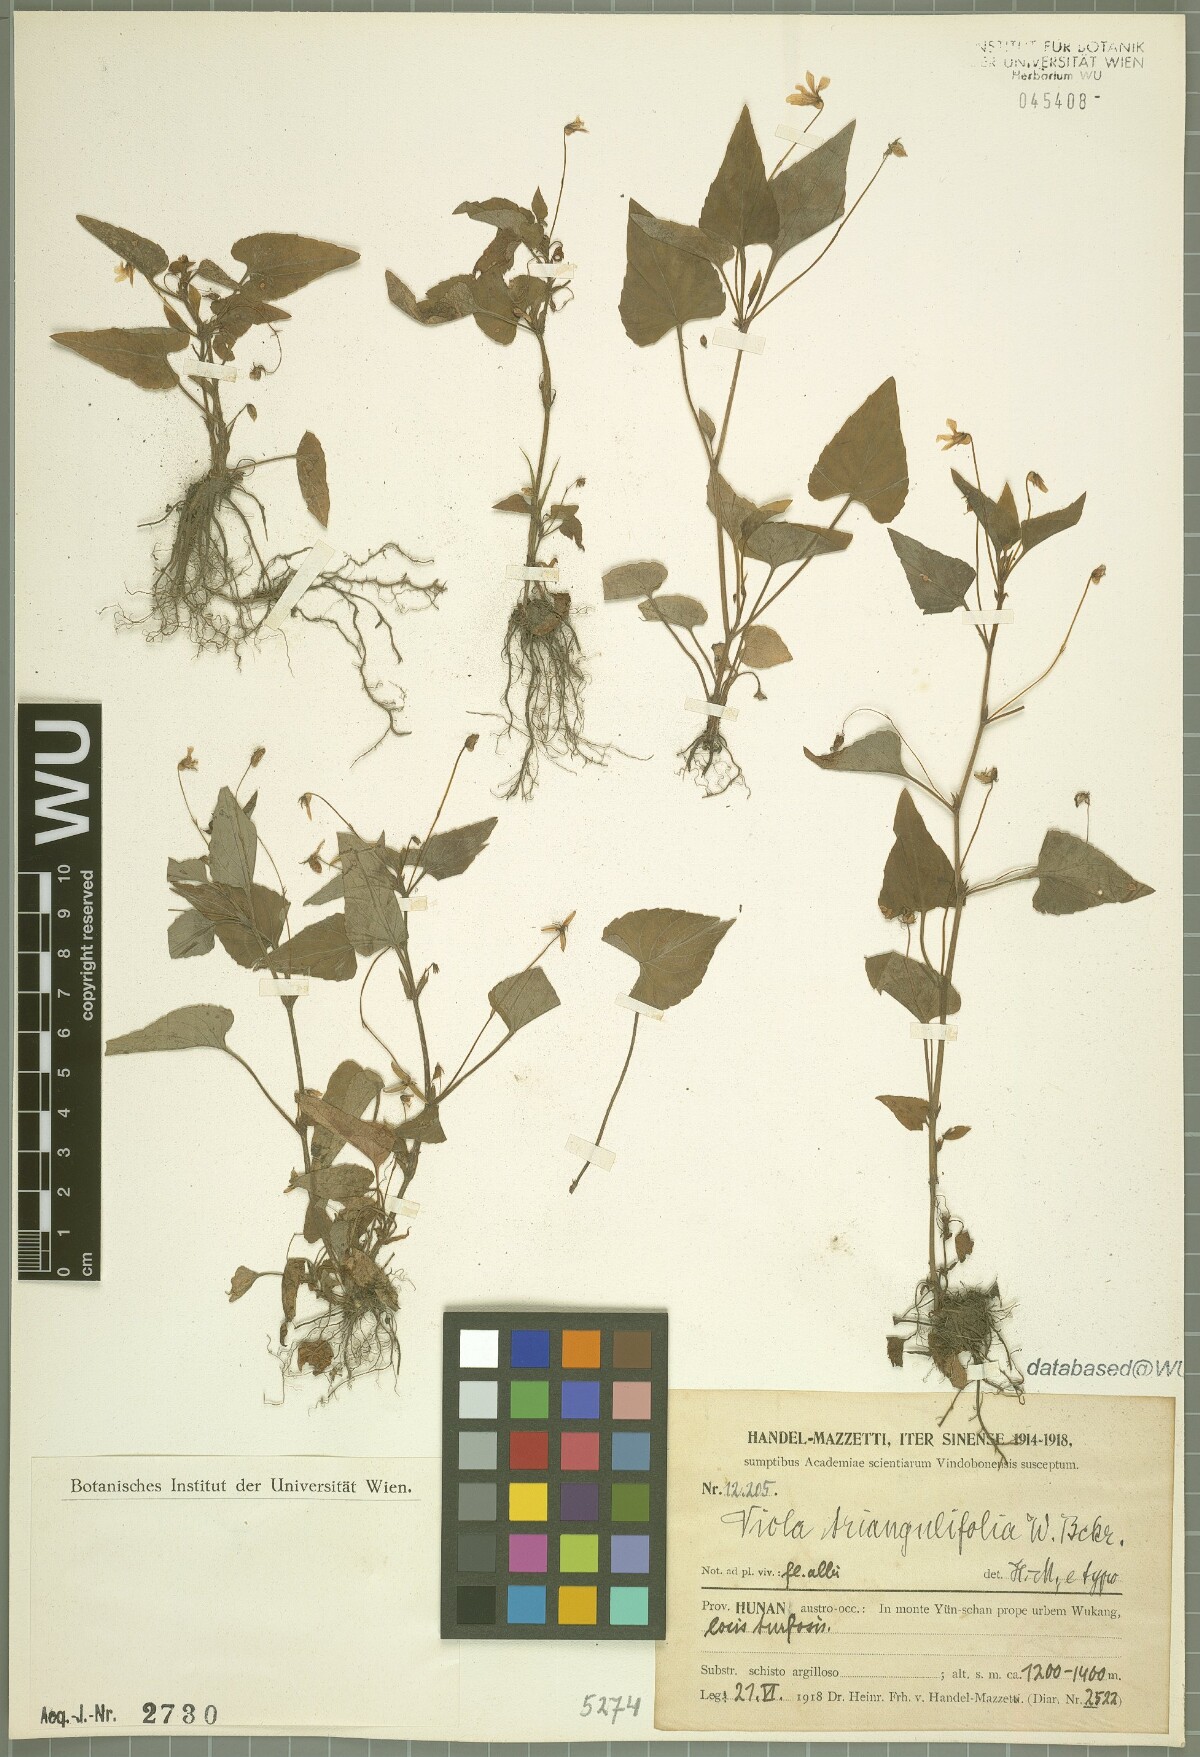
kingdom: Plantae
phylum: Tracheophyta
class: Magnoliopsida
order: Malpighiales
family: Violaceae
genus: Viola
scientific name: Viola triangulifolia
